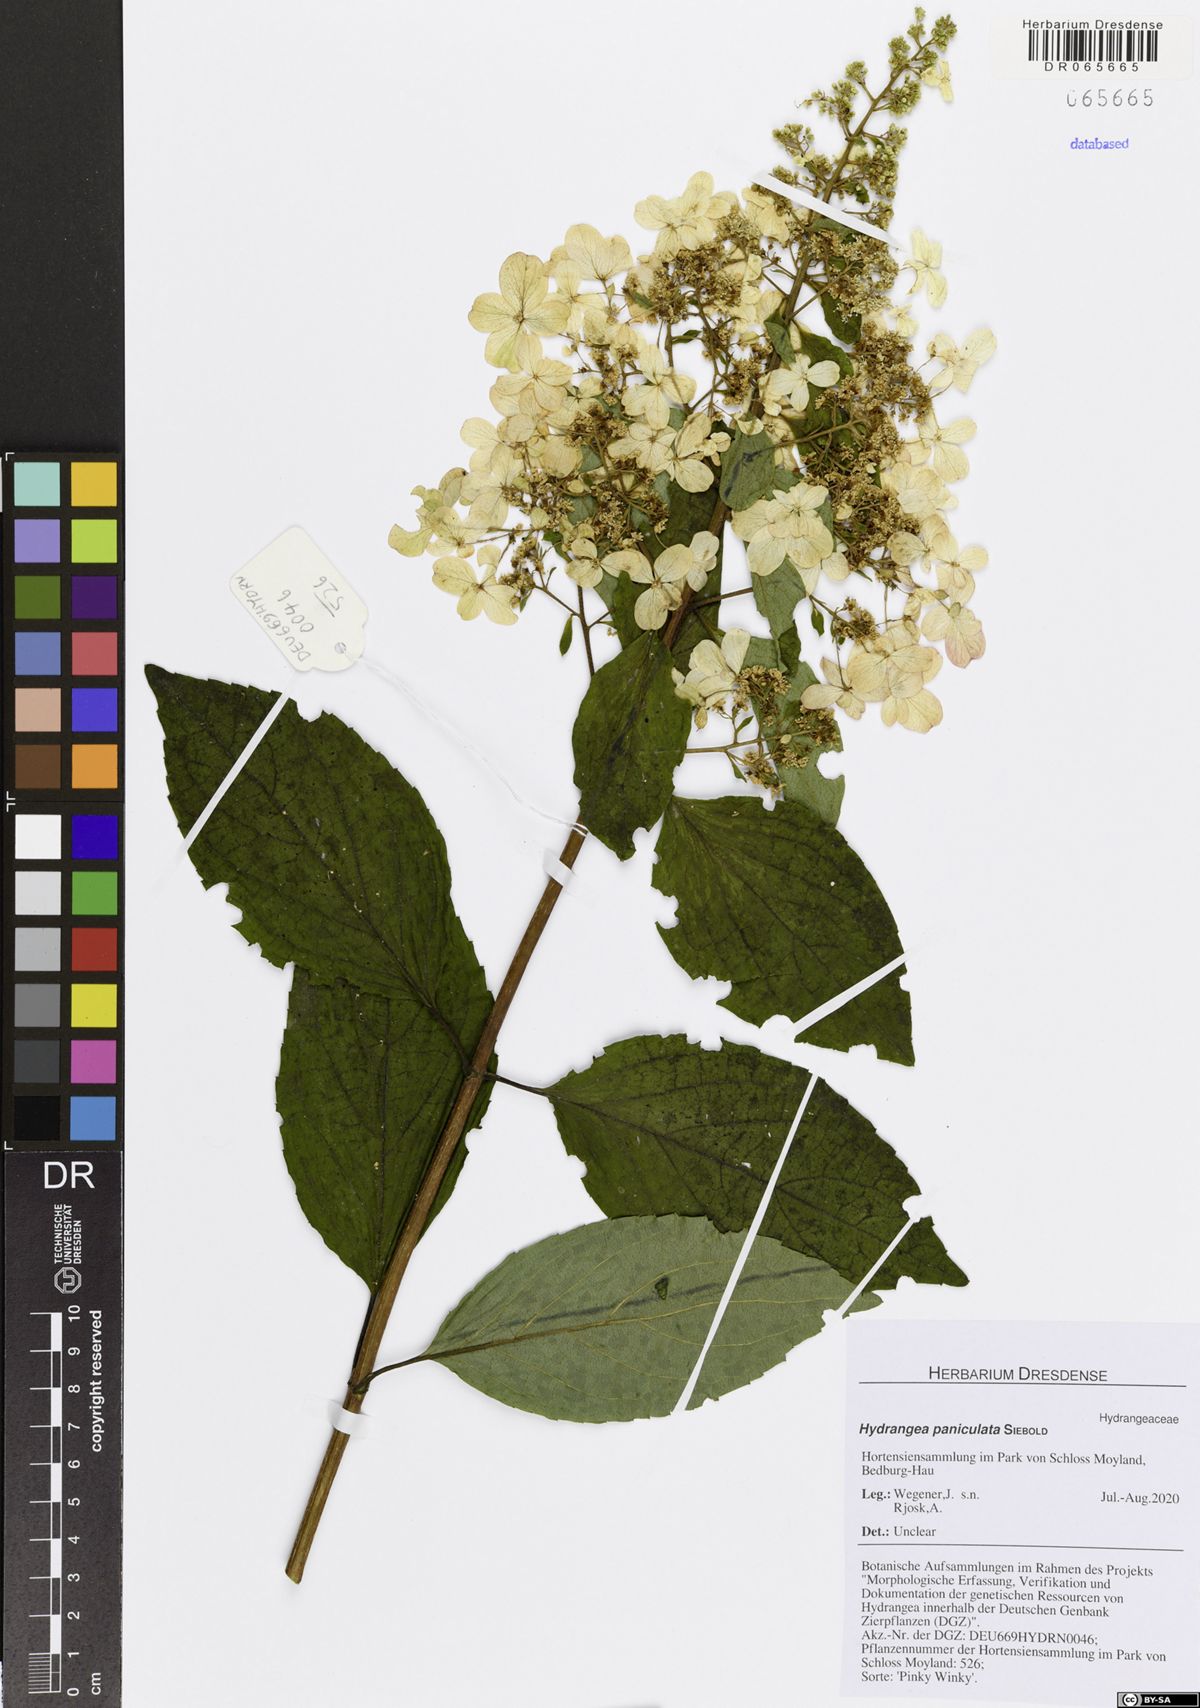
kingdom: Plantae
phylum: Tracheophyta
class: Magnoliopsida
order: Cornales
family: Hydrangeaceae
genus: Hydrangea
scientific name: Hydrangea paniculata
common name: Panicled hydrangea
